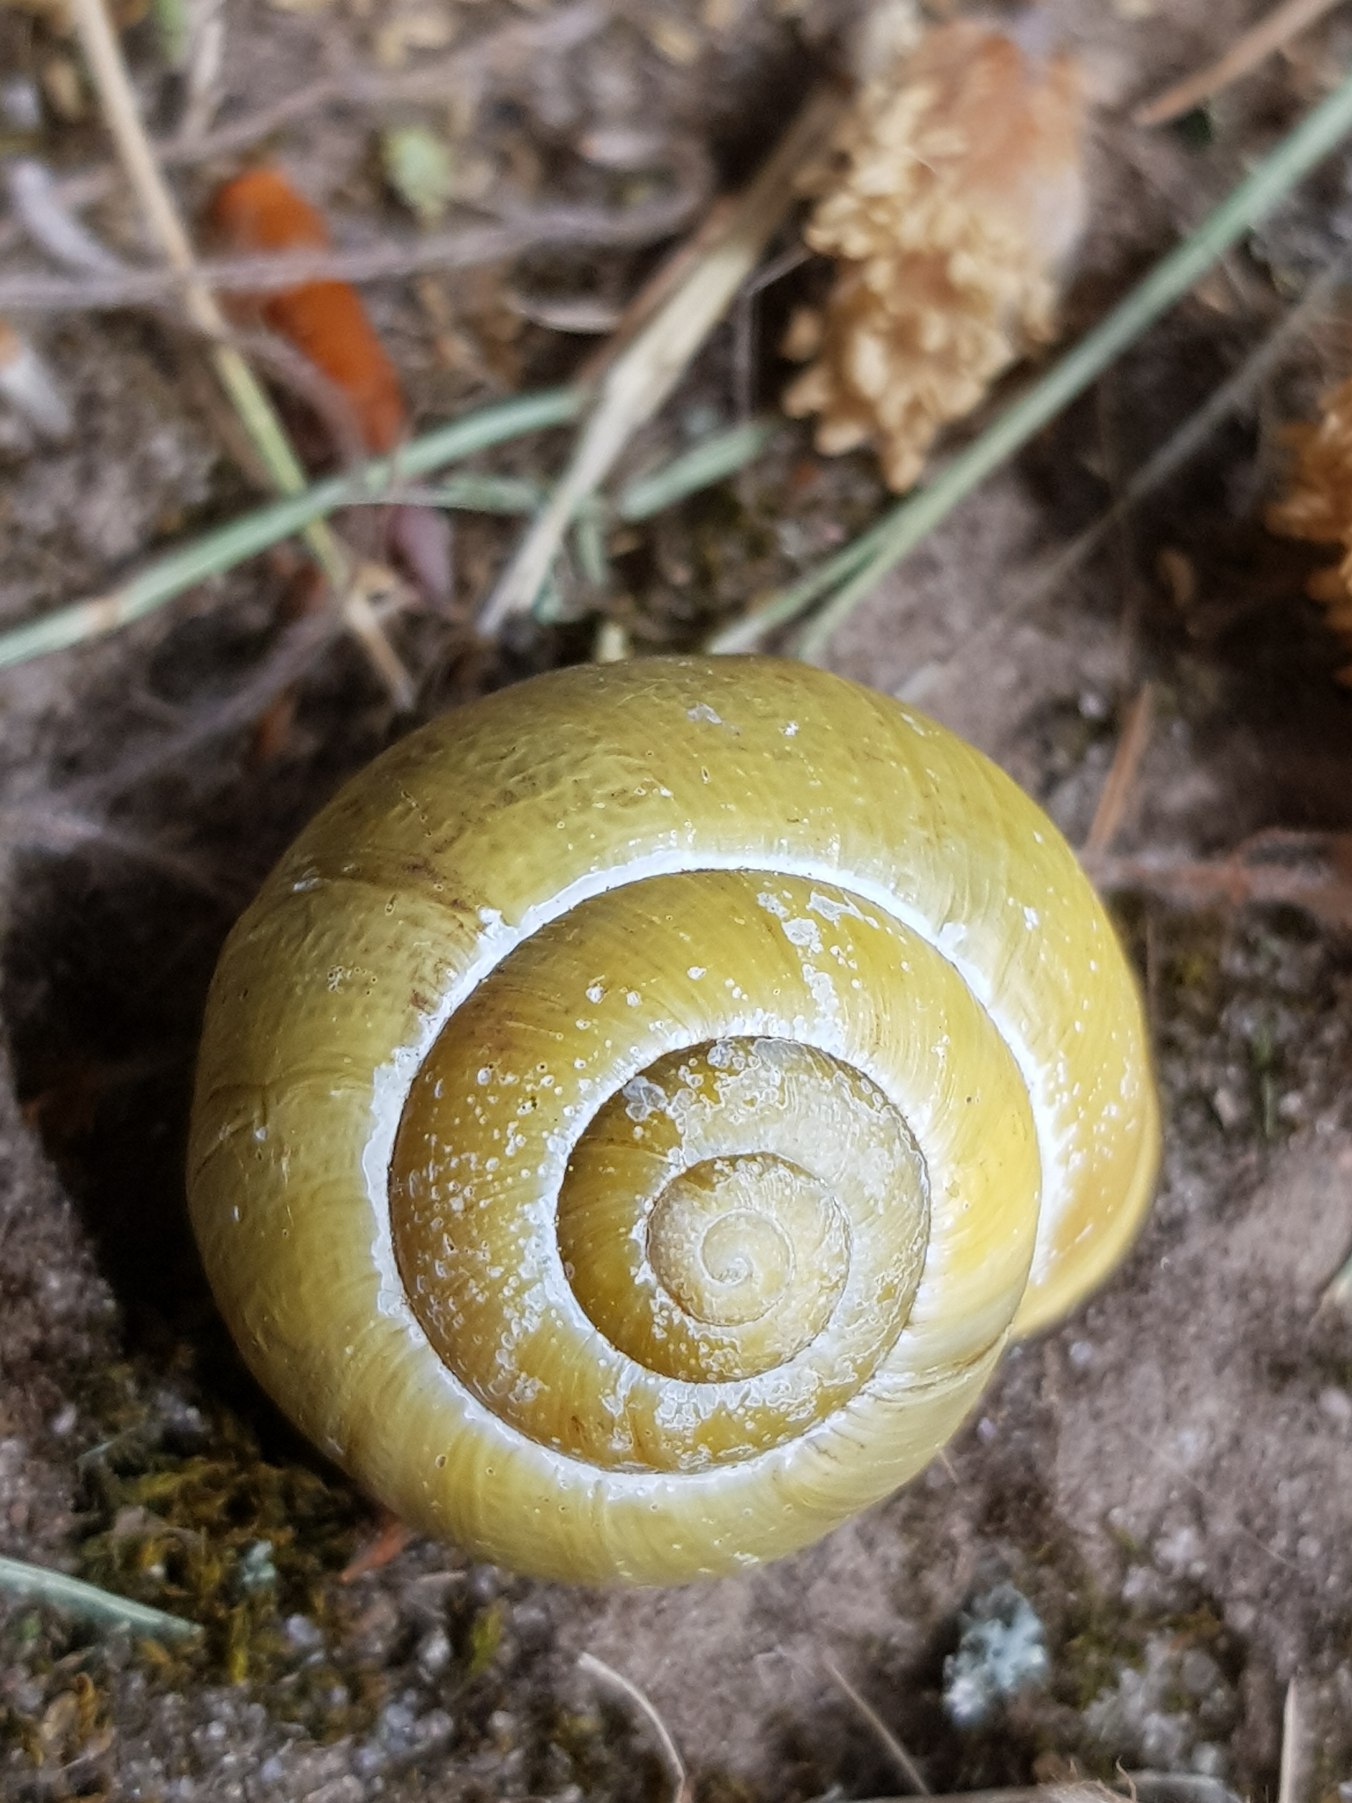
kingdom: Animalia
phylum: Mollusca
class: Gastropoda
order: Stylommatophora
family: Helicidae
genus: Cepaea
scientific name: Cepaea nemoralis
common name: Lundsnegl
